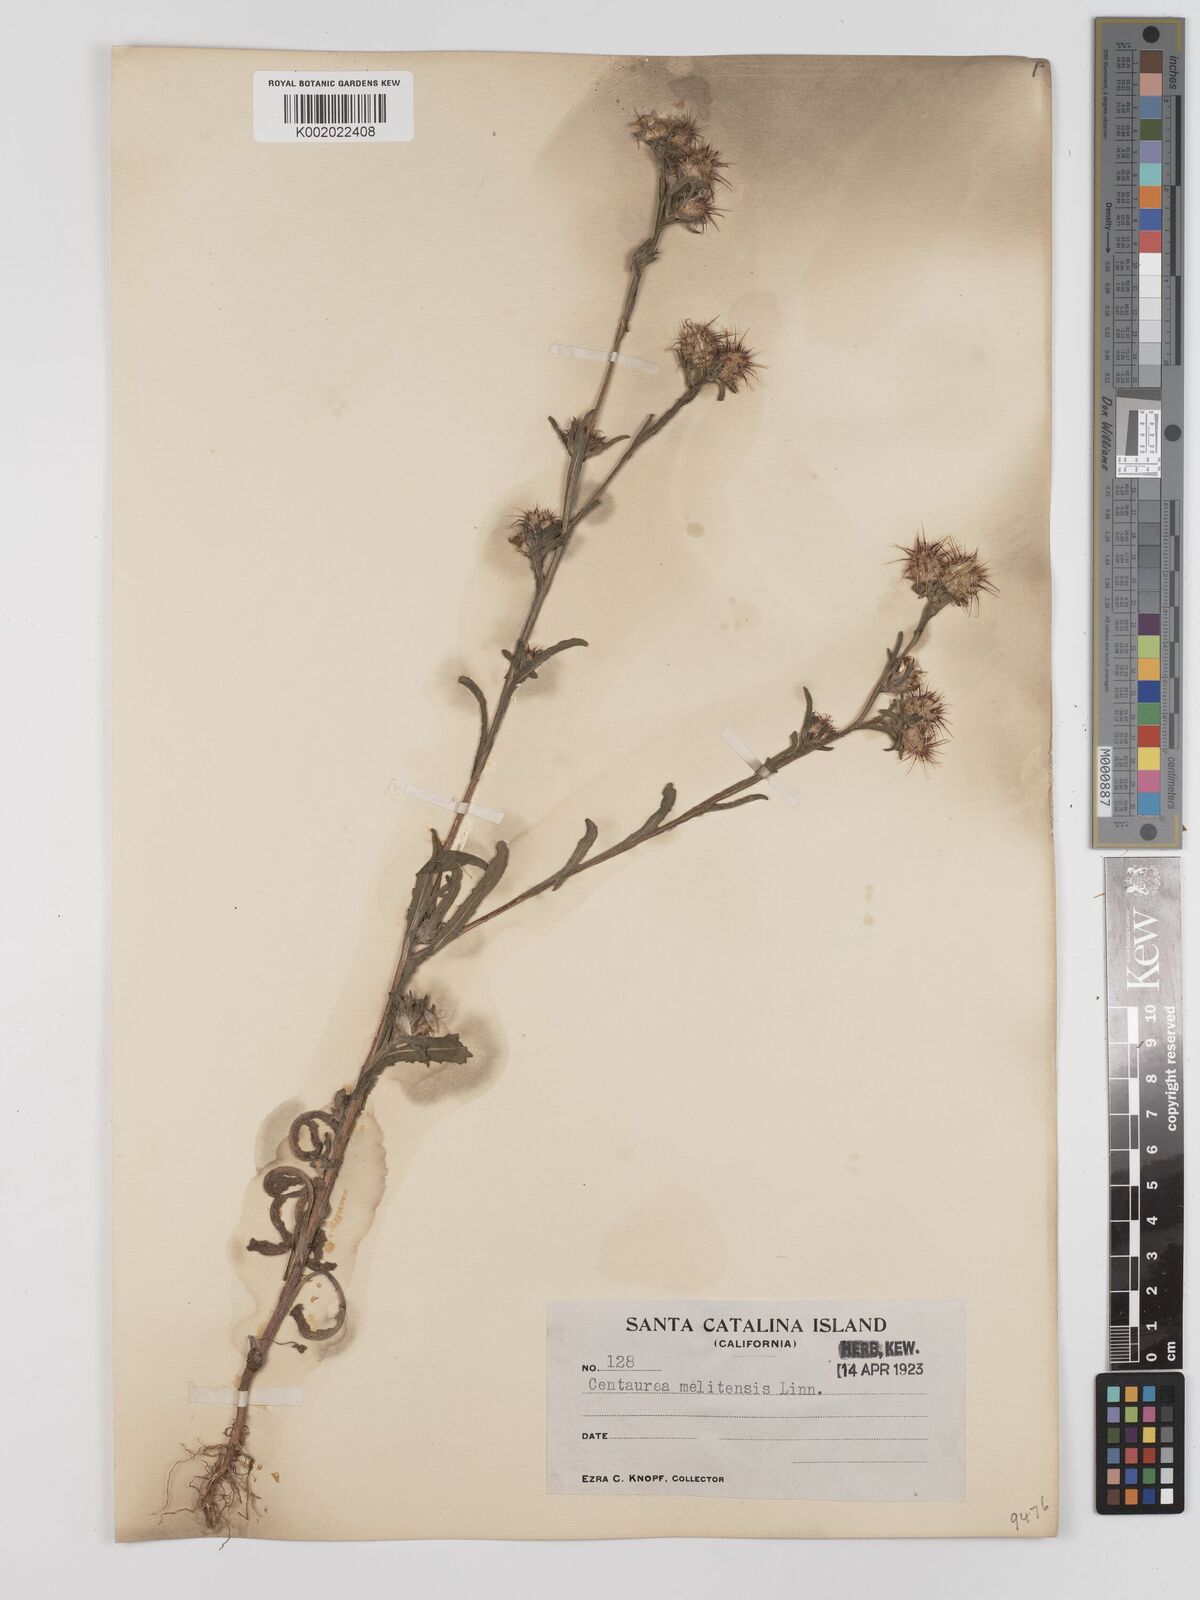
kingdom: Plantae
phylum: Tracheophyta
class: Magnoliopsida
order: Asterales
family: Asteraceae
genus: Centaurea
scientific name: Centaurea melitensis
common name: Maltese star-thistle
